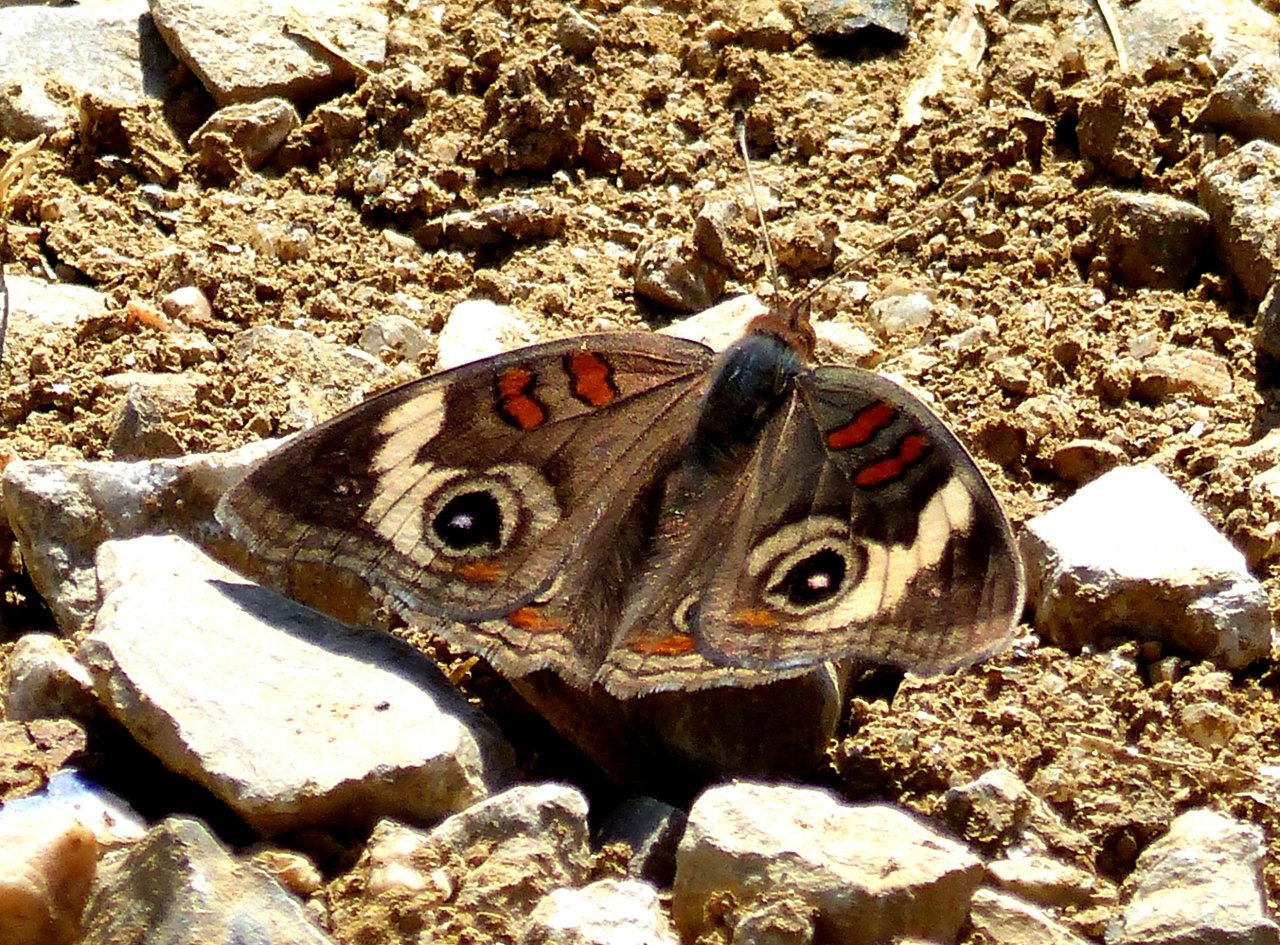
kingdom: Animalia
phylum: Arthropoda
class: Insecta
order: Lepidoptera
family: Nymphalidae
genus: Junonia
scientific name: Junonia coenia
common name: Common Buckeye
